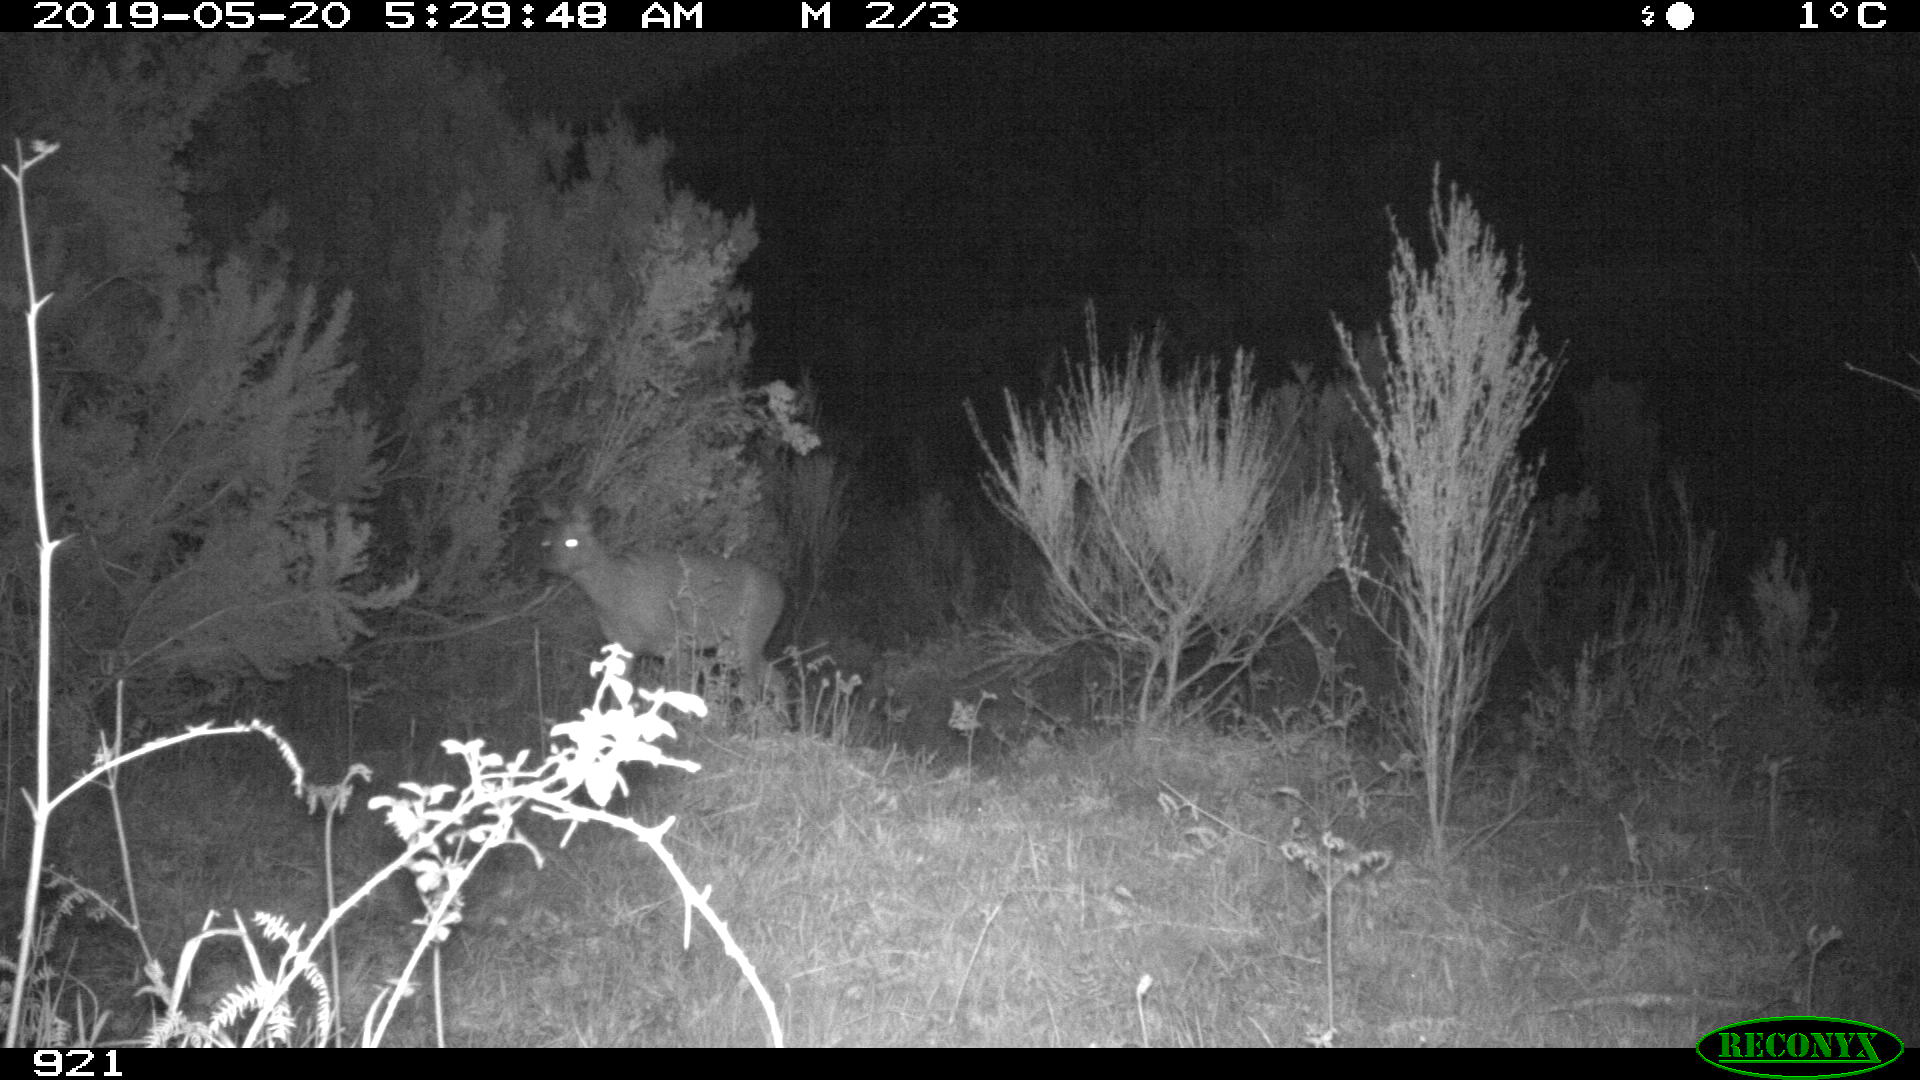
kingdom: Animalia
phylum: Chordata
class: Mammalia
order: Artiodactyla
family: Cervidae
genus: Capreolus
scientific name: Capreolus capreolus
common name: Western roe deer
